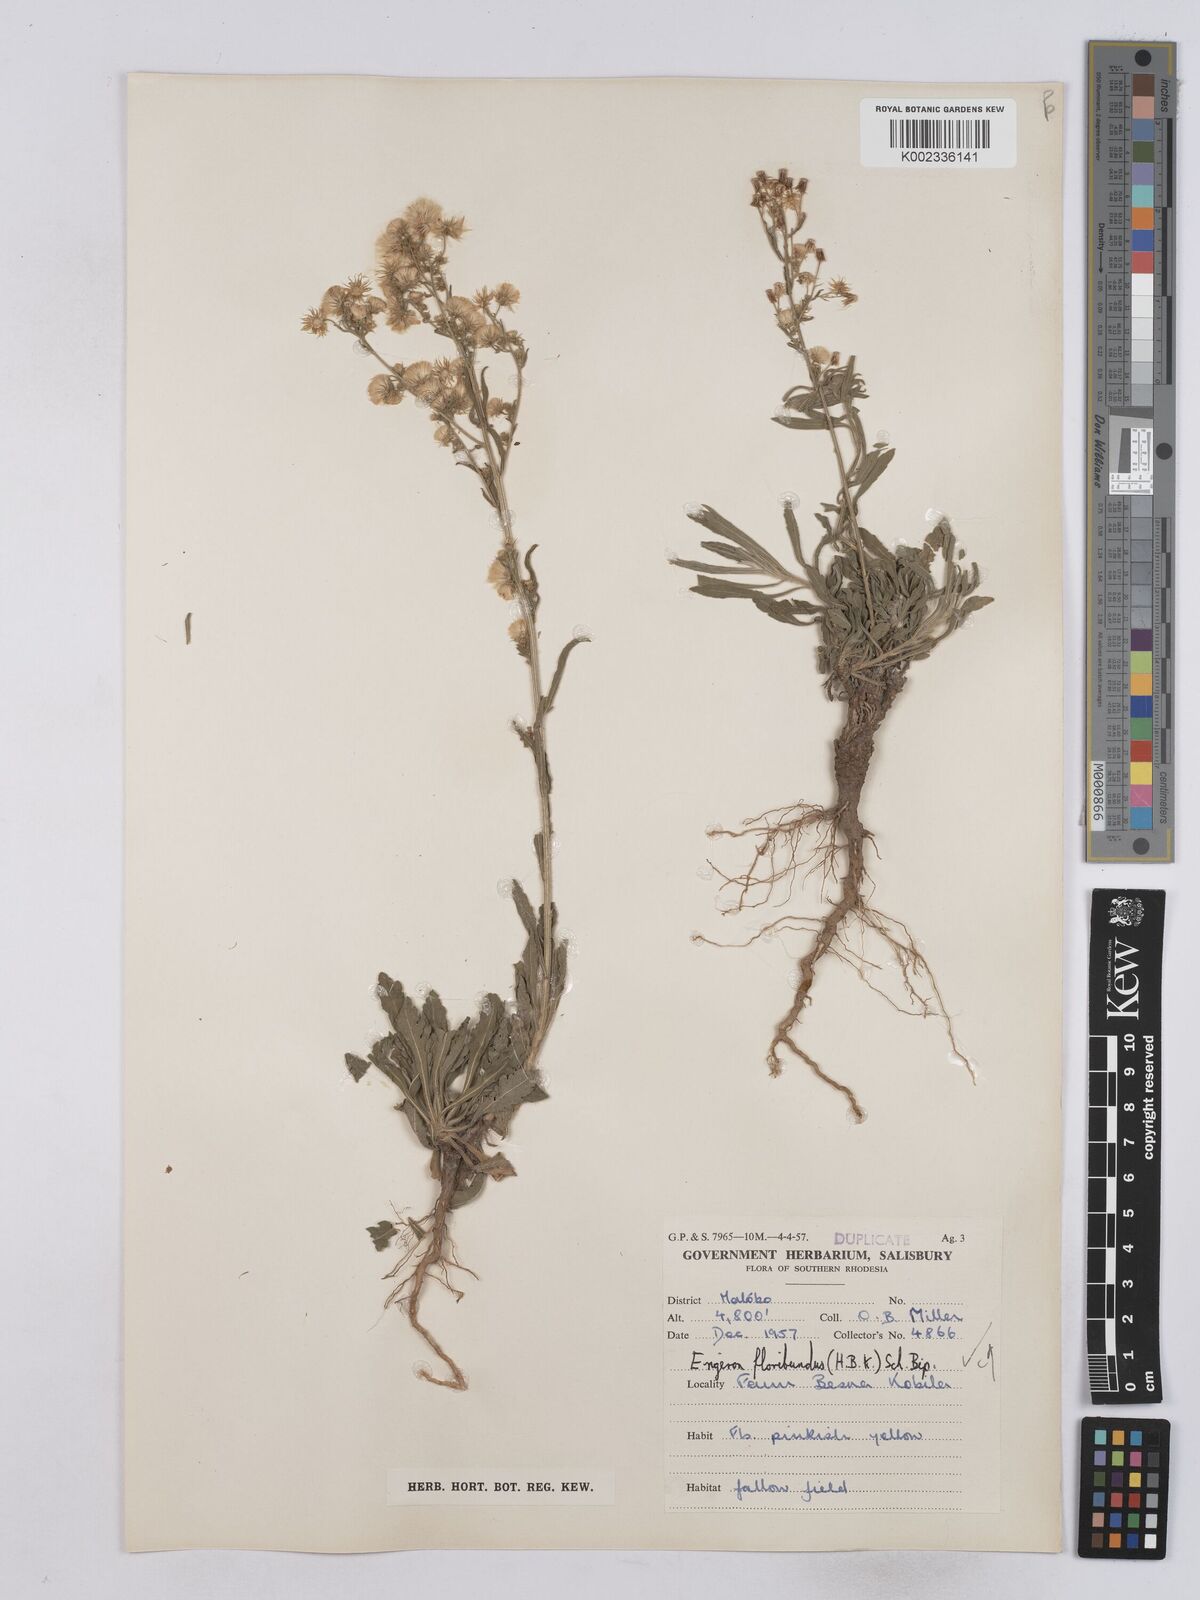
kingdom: Plantae
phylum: Tracheophyta
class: Magnoliopsida
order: Asterales
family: Asteraceae
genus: Erigeron
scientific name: Erigeron floribundus
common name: Bilbao fleabane
